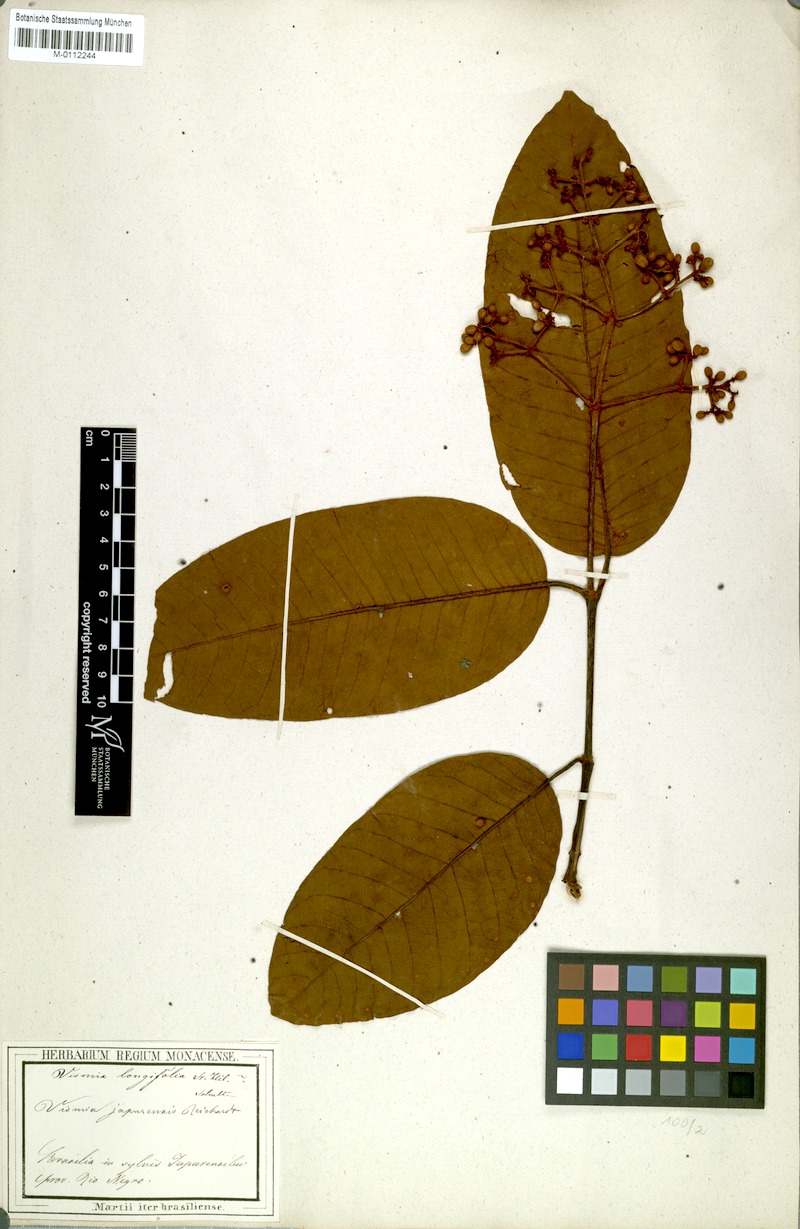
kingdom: Plantae
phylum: Tracheophyta
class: Magnoliopsida
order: Malpighiales
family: Hypericaceae
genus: Vismia
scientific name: Vismia japurensis
